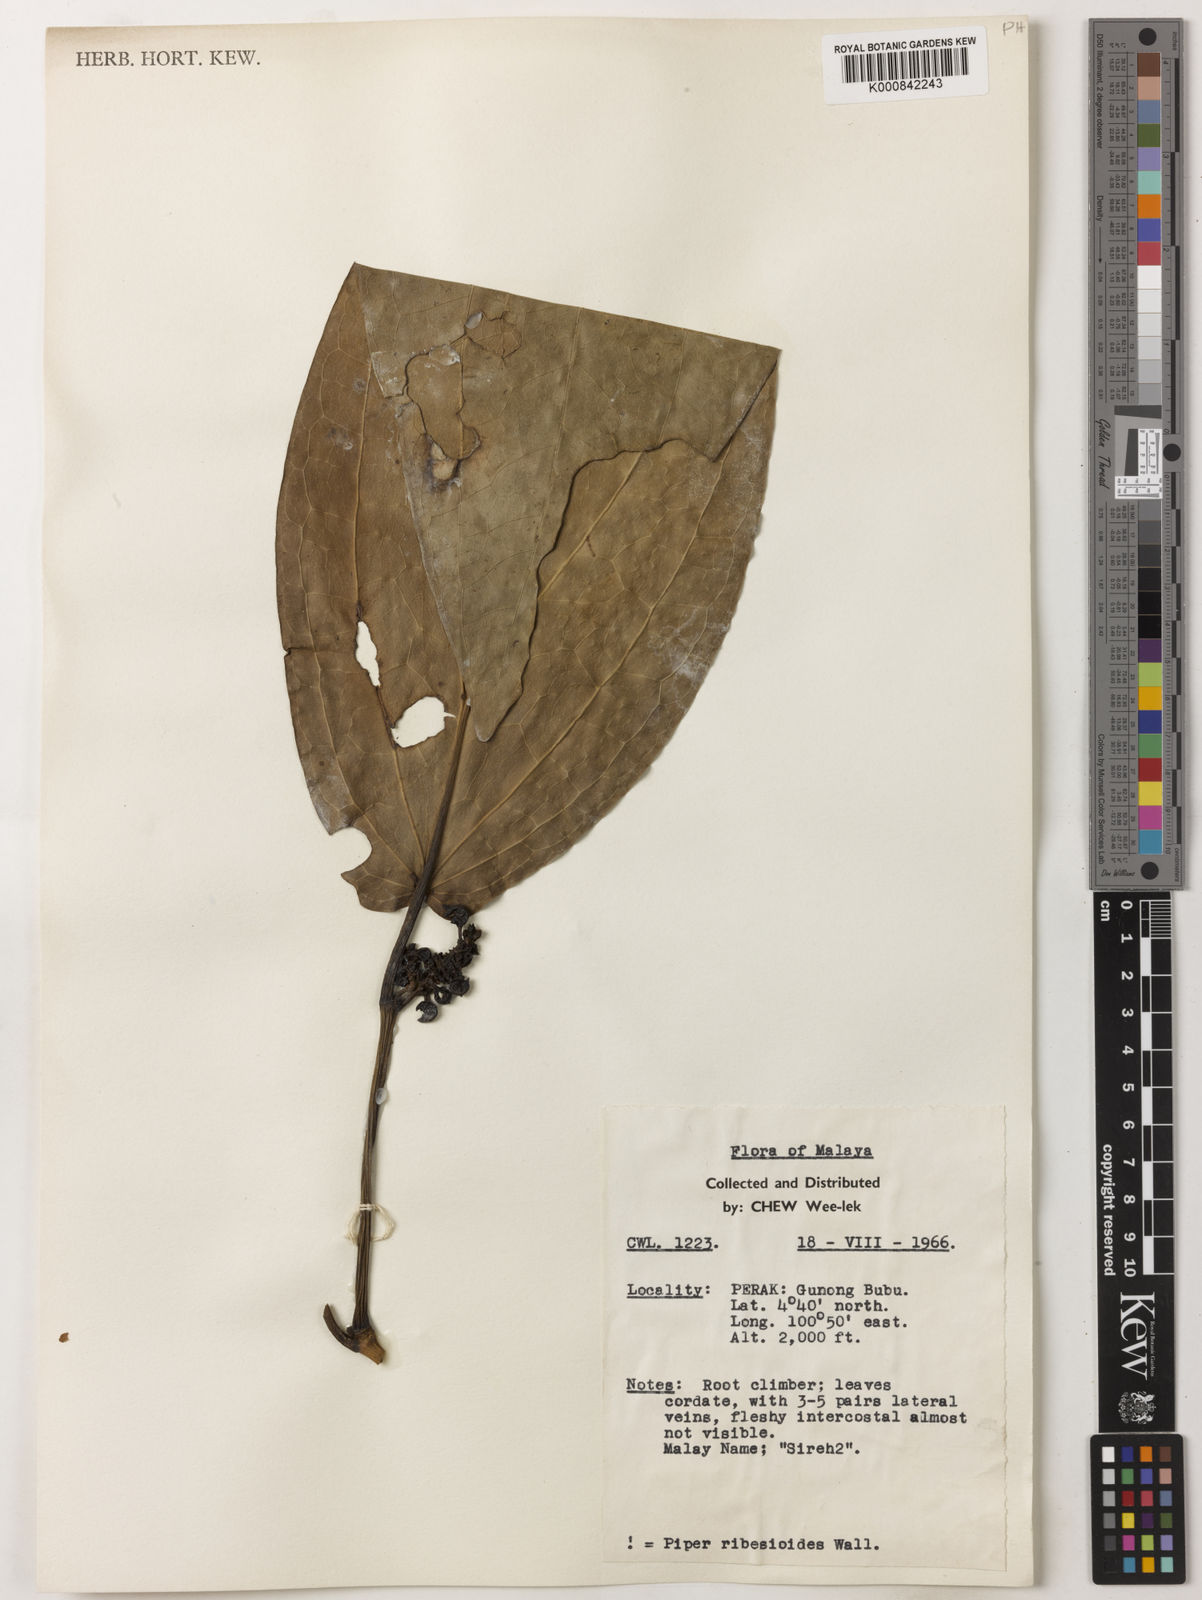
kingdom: Plantae
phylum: Tracheophyta
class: Magnoliopsida
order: Piperales
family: Piperaceae
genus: Piper
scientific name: Piper ribesioides
